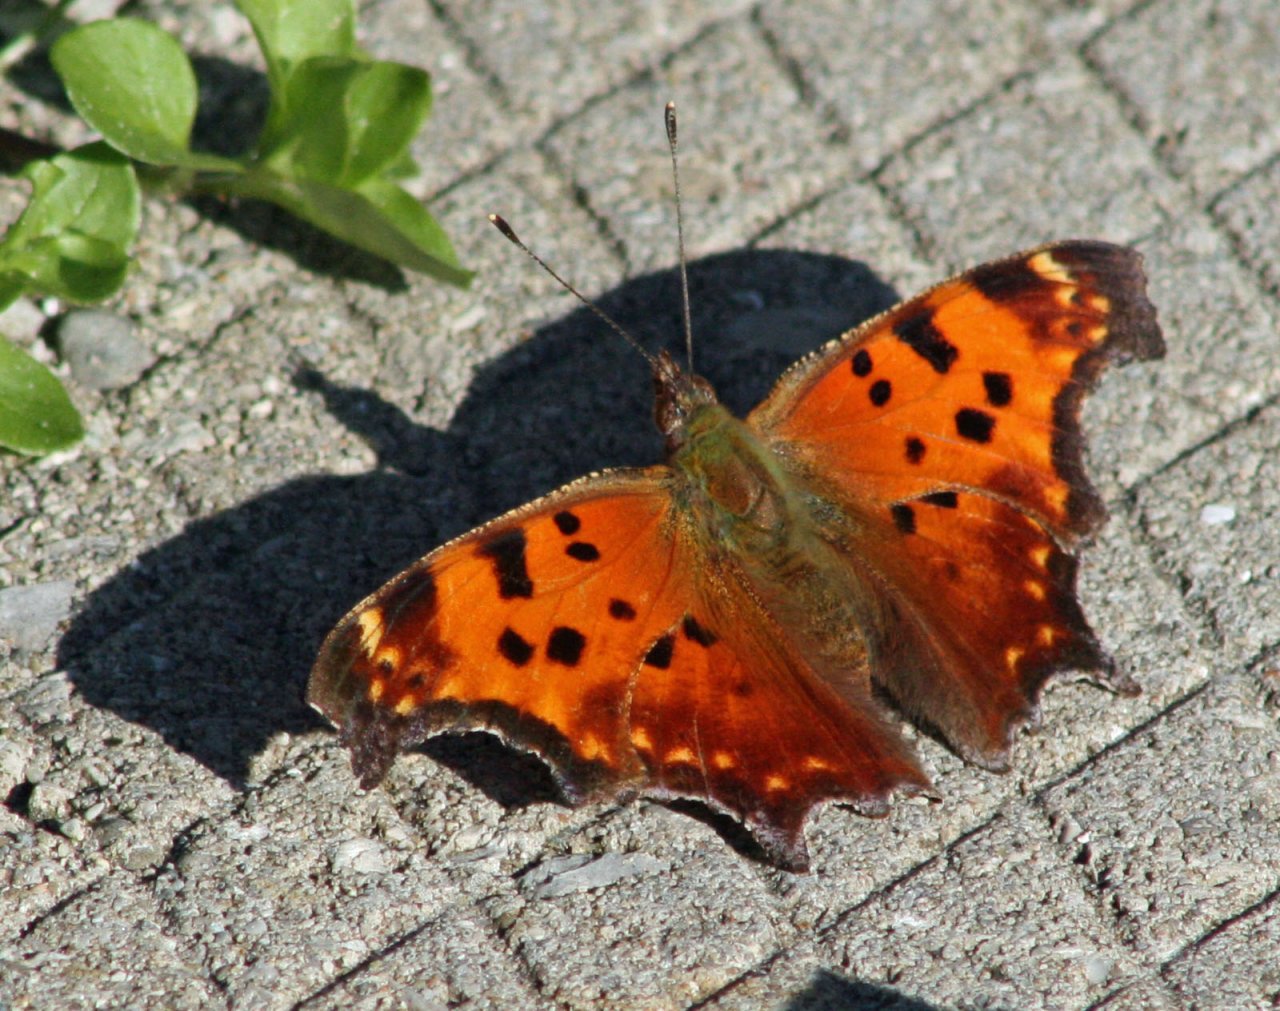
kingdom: Animalia
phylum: Arthropoda
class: Insecta
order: Lepidoptera
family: Nymphalidae
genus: Polygonia
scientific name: Polygonia comma
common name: Eastern Comma
